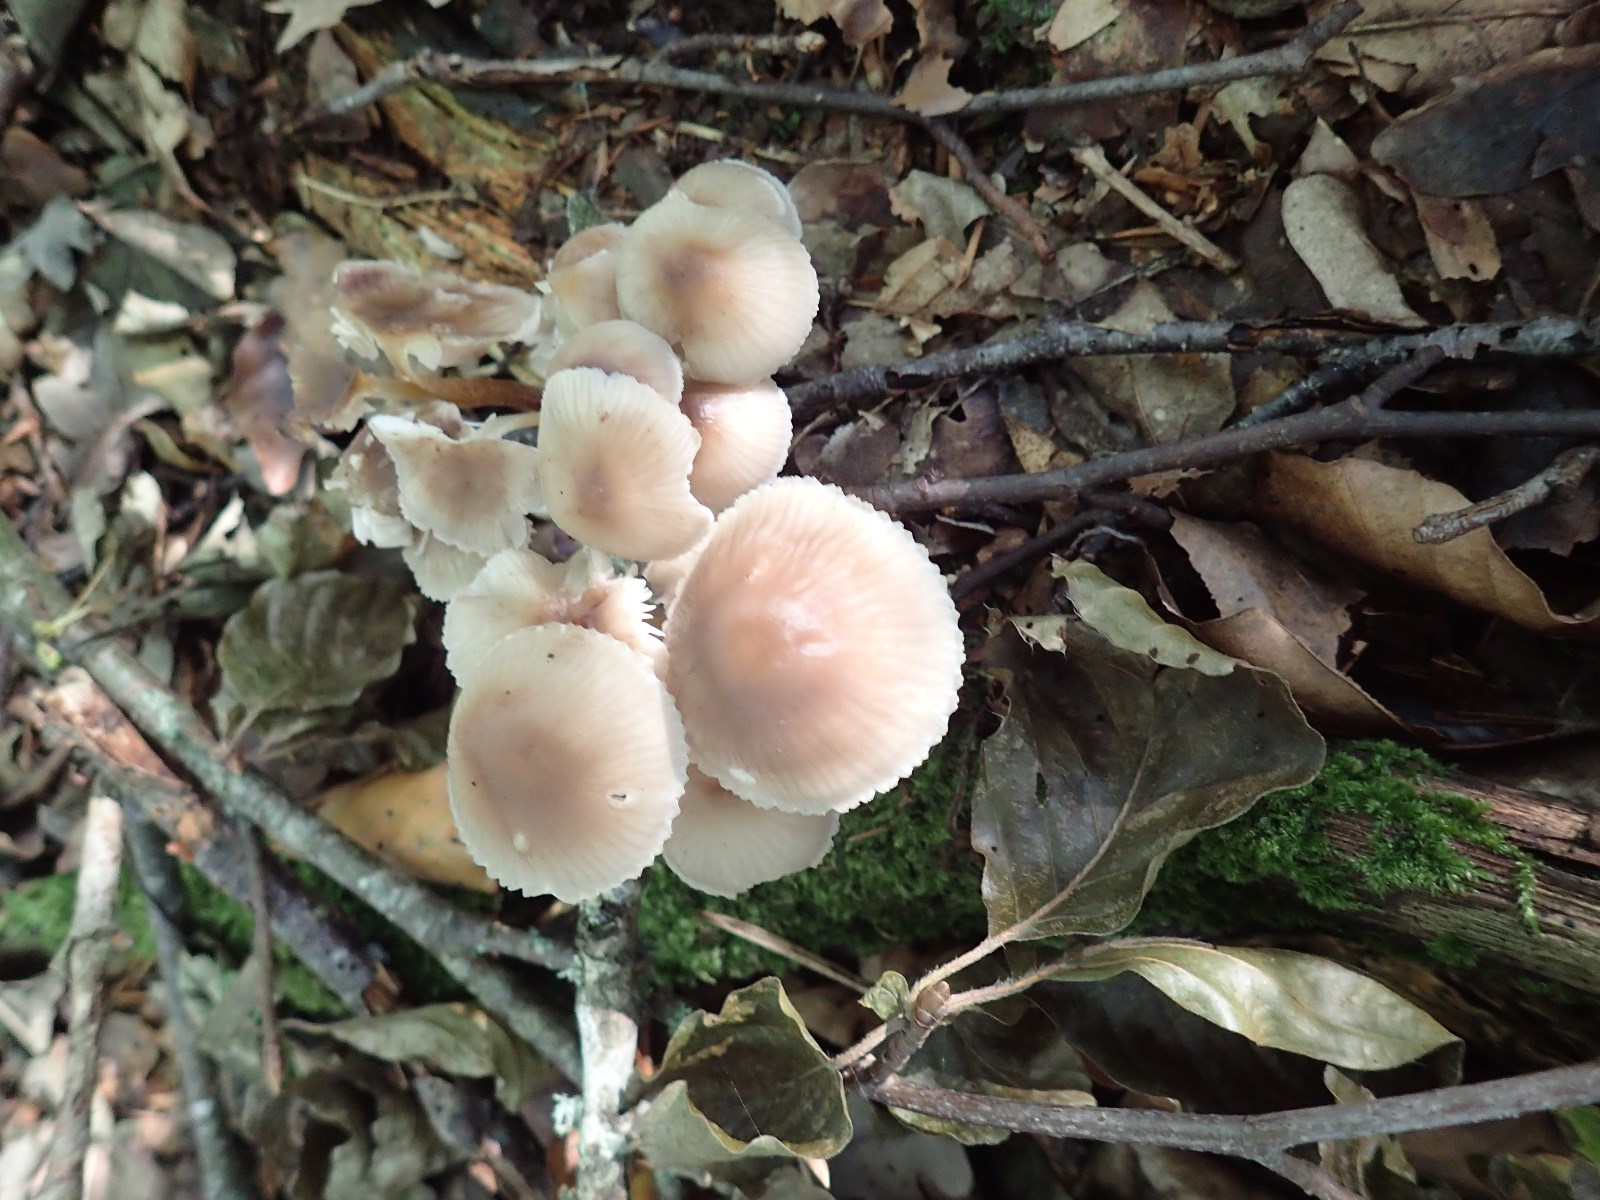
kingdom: Fungi
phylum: Basidiomycota
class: Agaricomycetes
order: Agaricales
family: Mycenaceae
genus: Mycena
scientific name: Mycena
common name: huesvamp
